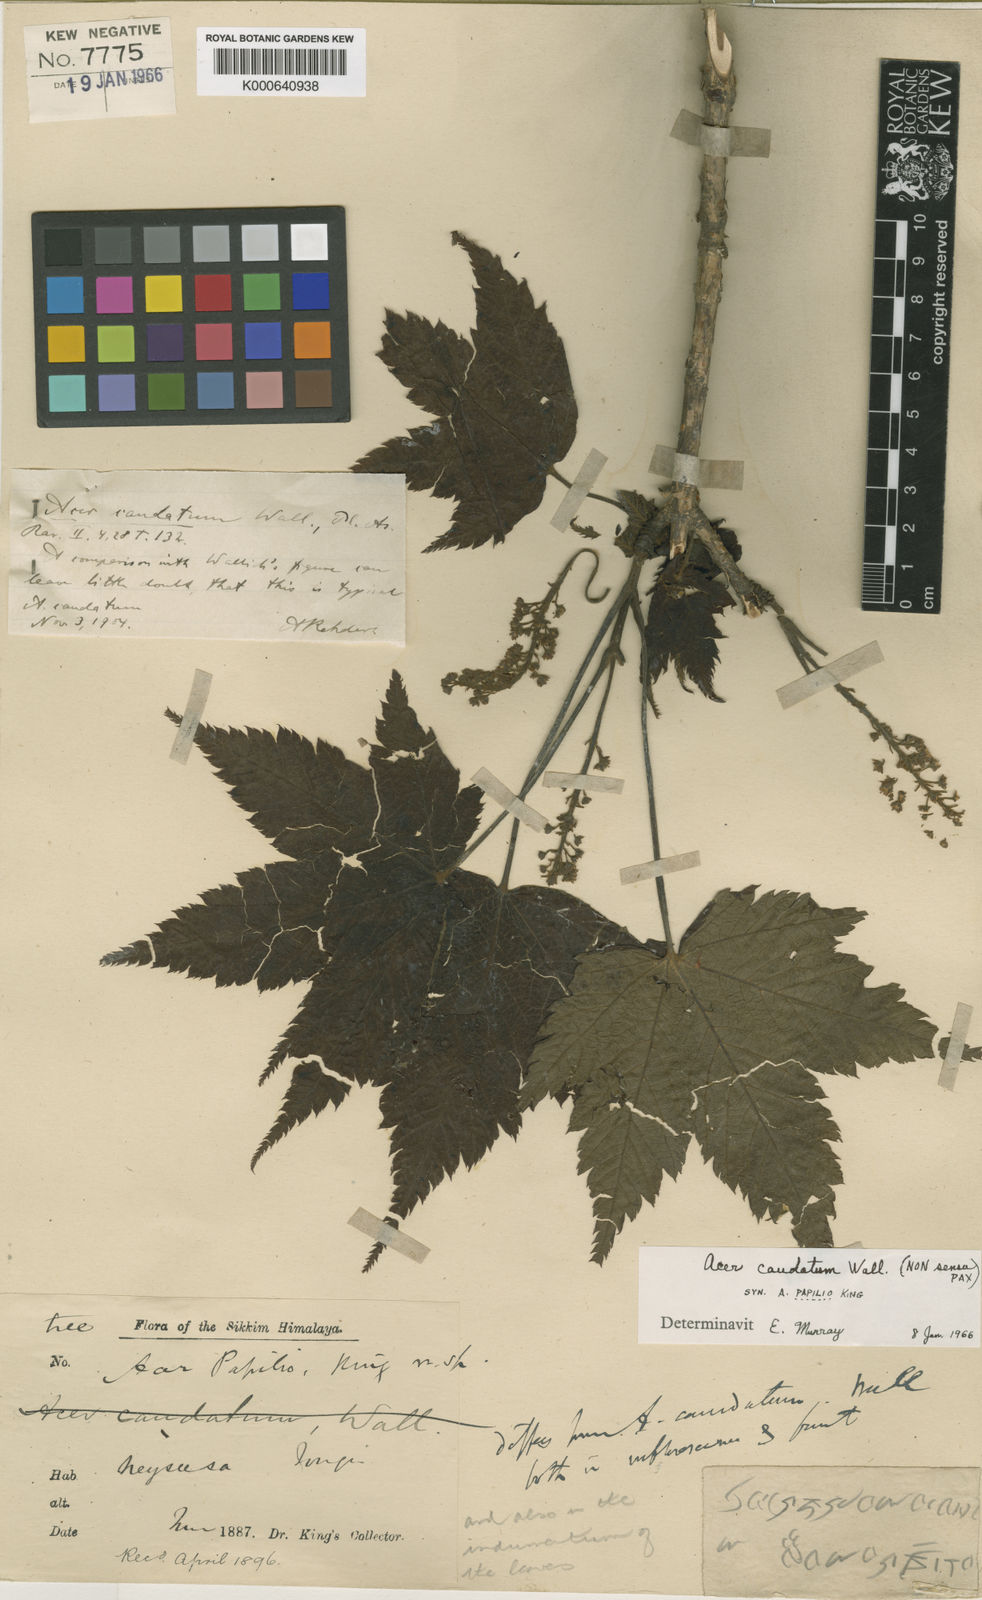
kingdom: Plantae
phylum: Tracheophyta
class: Magnoliopsida
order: Sapindales
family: Sapindaceae
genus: Acer
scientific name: Acer caudatum
